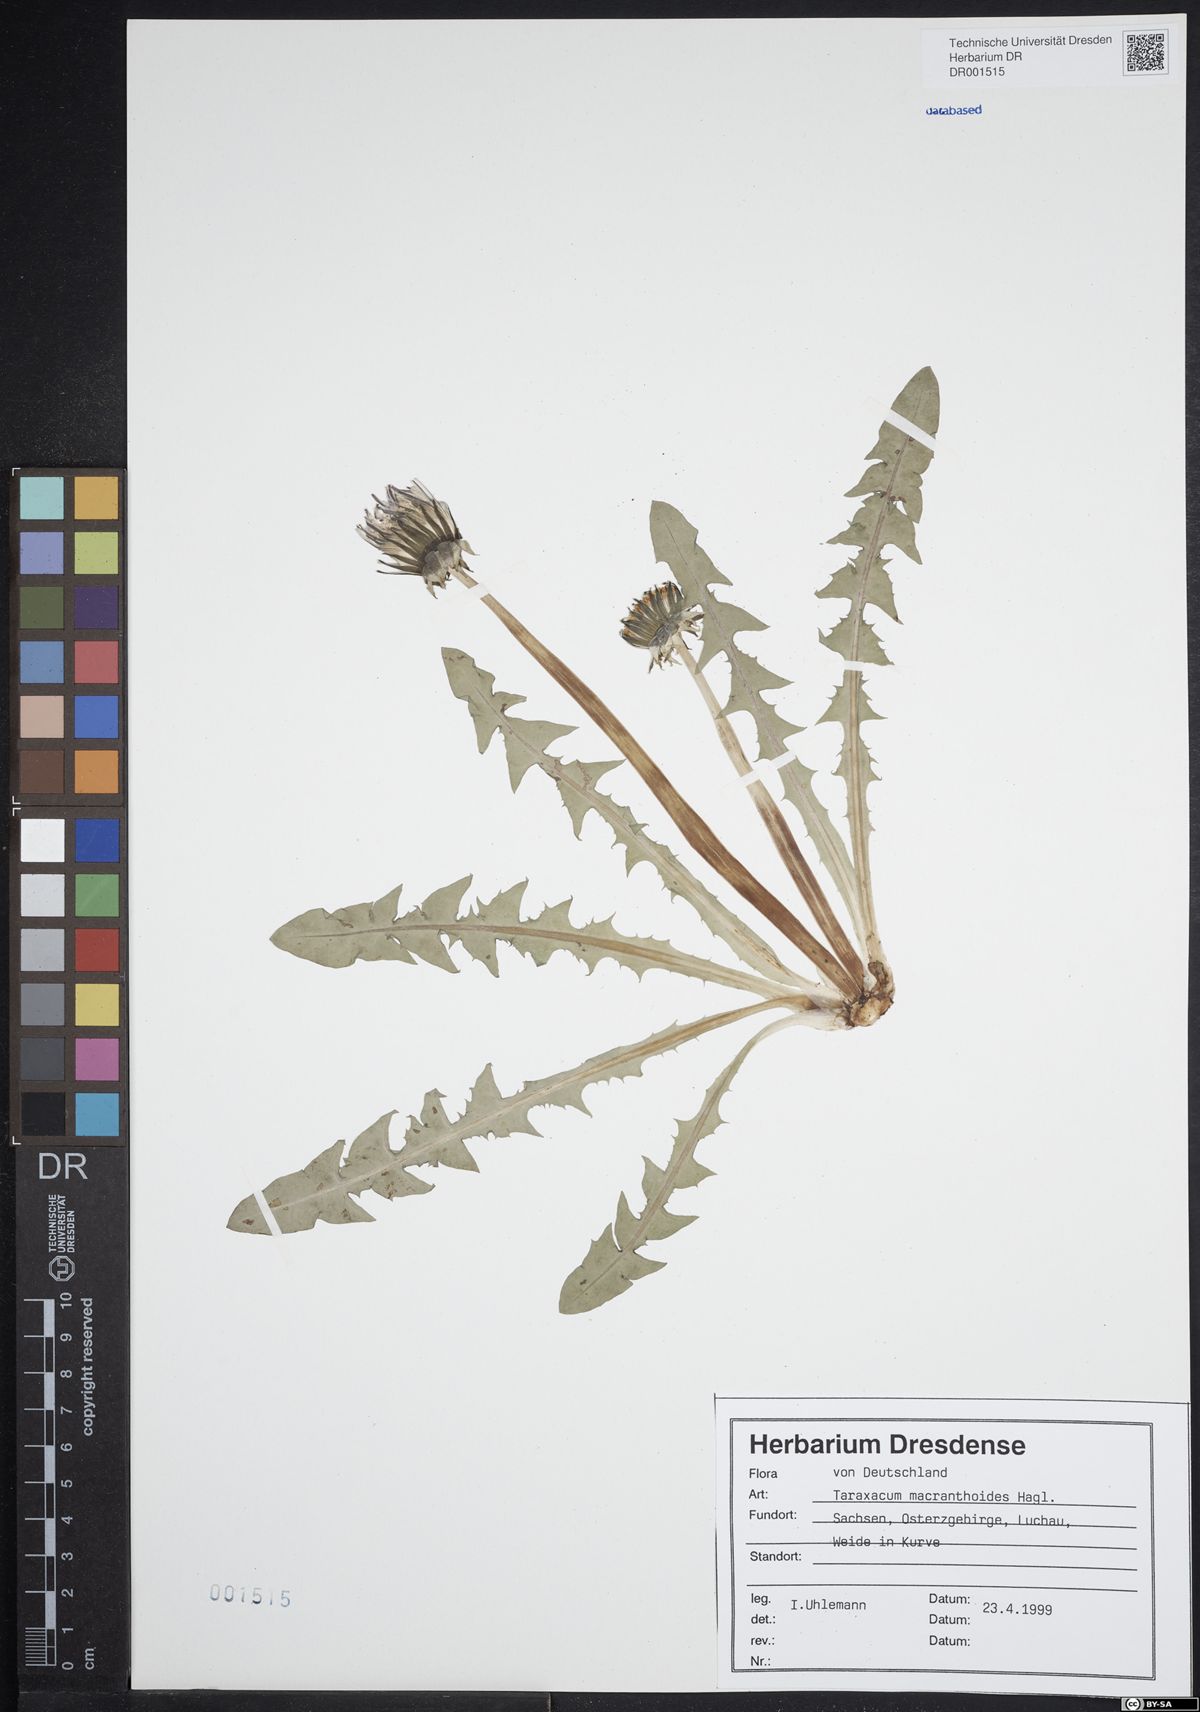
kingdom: Plantae
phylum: Tracheophyta
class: Magnoliopsida
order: Asterales
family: Asteraceae
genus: Taraxacum
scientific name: Taraxacum macranthoides
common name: Large-flowered dandelion
